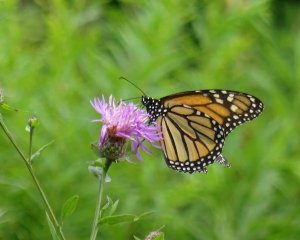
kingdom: Animalia
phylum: Arthropoda
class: Insecta
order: Lepidoptera
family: Nymphalidae
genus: Danaus
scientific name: Danaus plexippus
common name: Monarch
